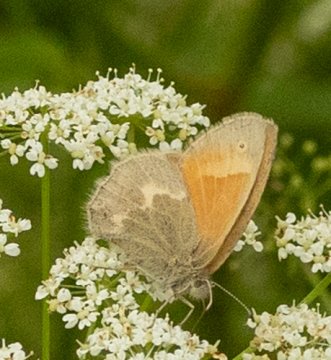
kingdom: Animalia
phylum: Arthropoda
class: Insecta
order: Lepidoptera
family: Nymphalidae
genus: Coenonympha
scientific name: Coenonympha tullia
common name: Large Heath
